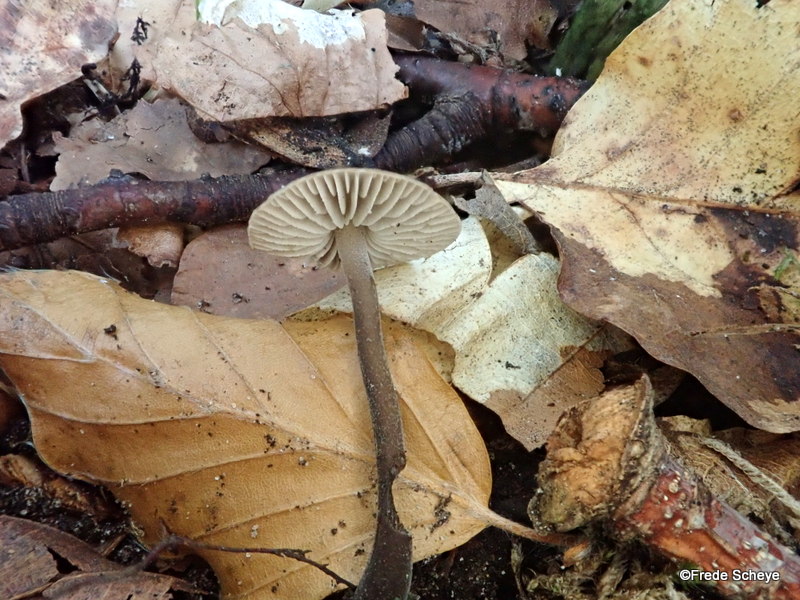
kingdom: Fungi
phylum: Basidiomycota
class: Agaricomycetes
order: Agaricales
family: Omphalotaceae
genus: Mycetinis
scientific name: Mycetinis alliaceus
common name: stor løghat
